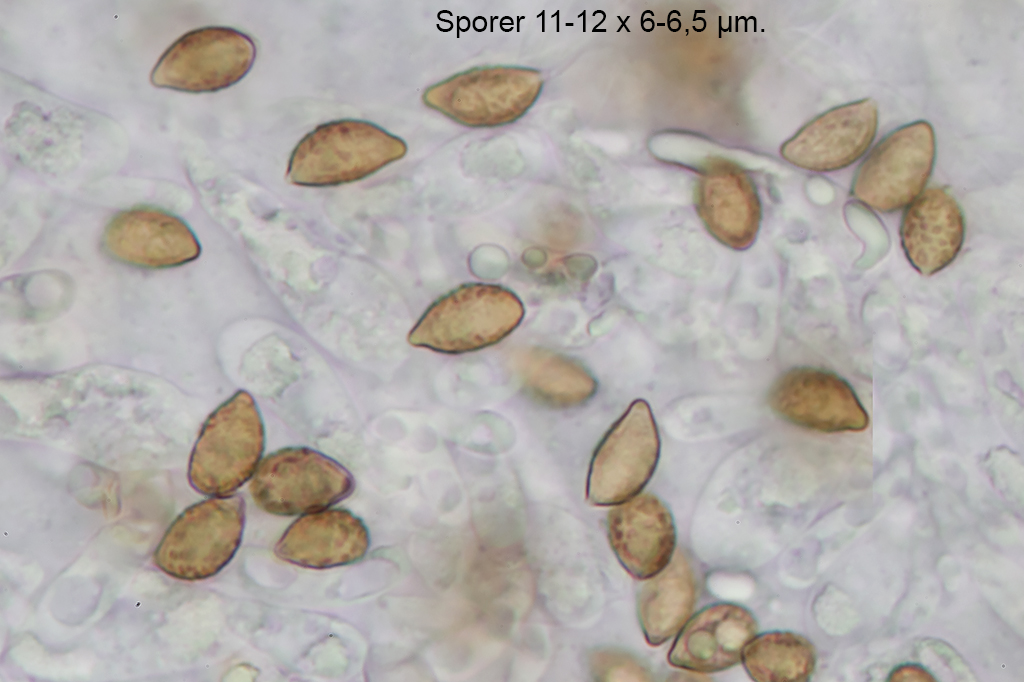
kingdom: Fungi
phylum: Basidiomycota
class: Agaricomycetes
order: Agaricales
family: Cortinariaceae
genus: Calonarius
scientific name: Calonarius humolens
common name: radise-slørhat
